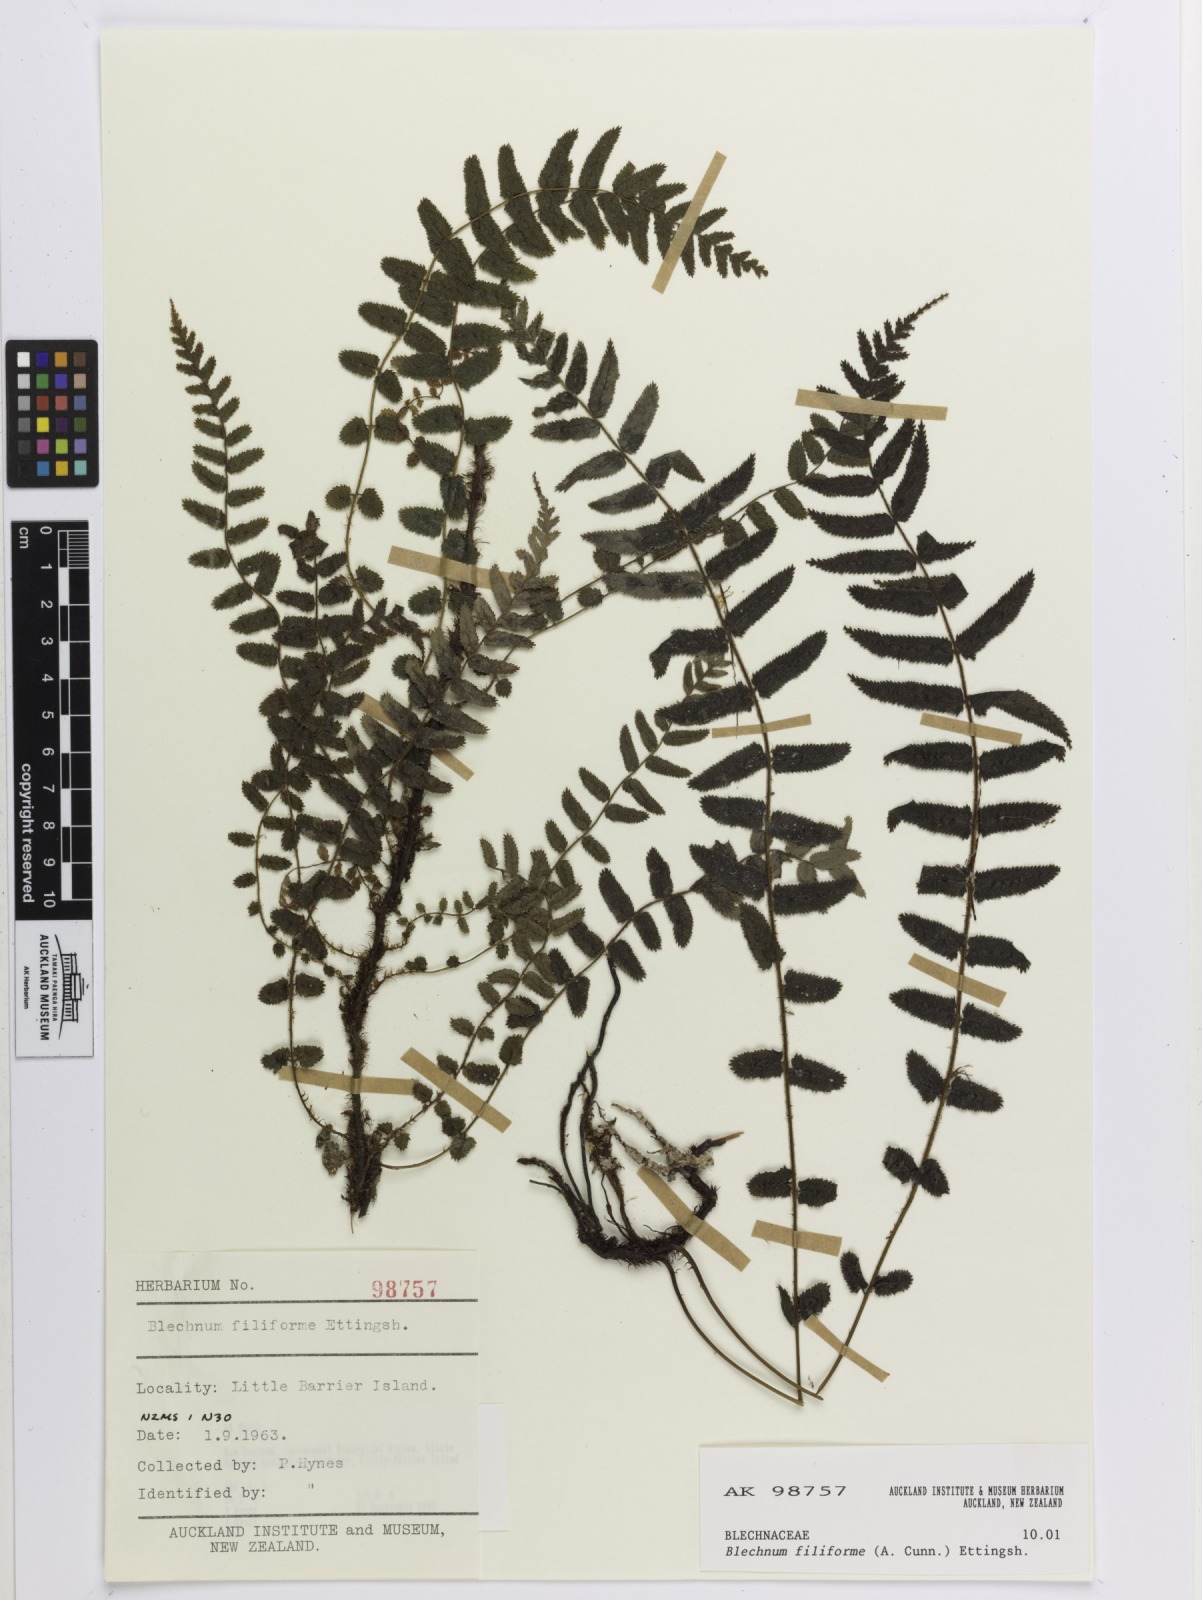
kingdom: Plantae
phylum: Tracheophyta
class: Polypodiopsida
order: Polypodiales
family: Blechnaceae
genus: Icarus
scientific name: Icarus filiformis
